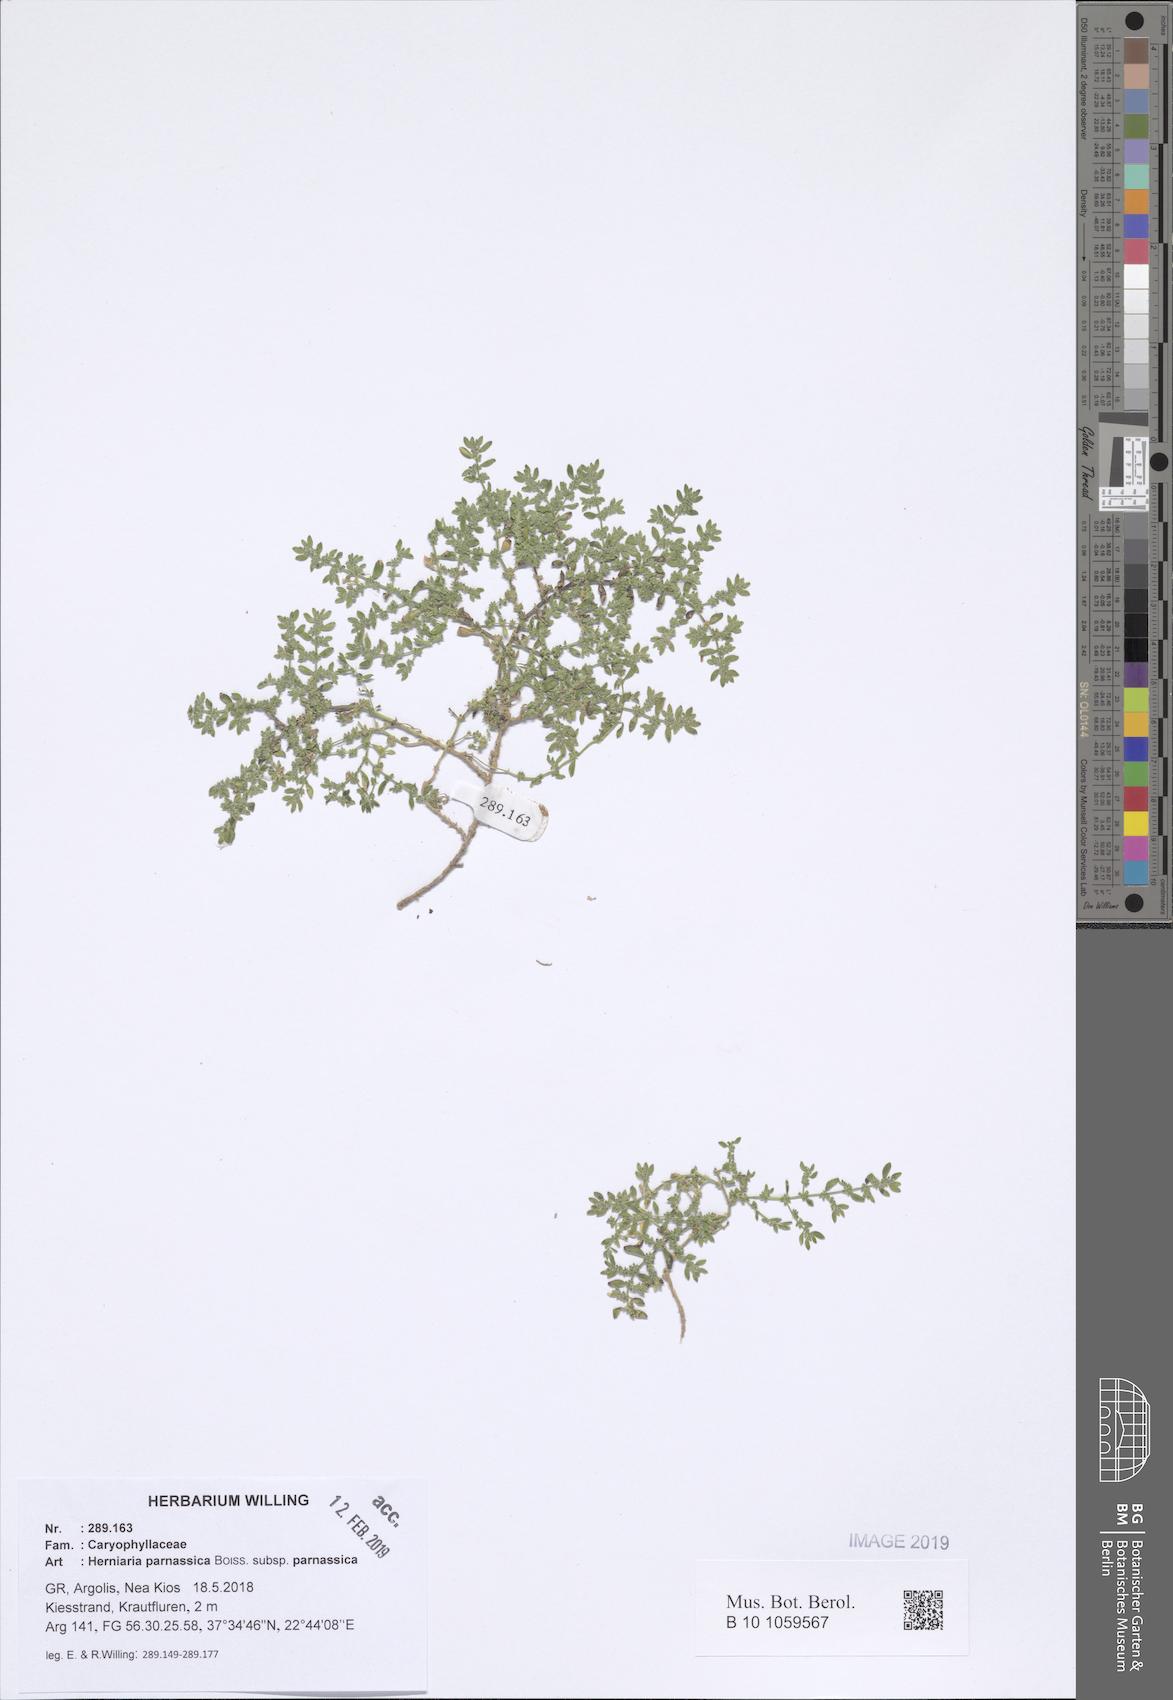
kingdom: Plantae
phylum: Tracheophyta
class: Magnoliopsida
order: Caryophyllales
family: Caryophyllaceae
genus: Herniaria
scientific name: Herniaria parnassica
